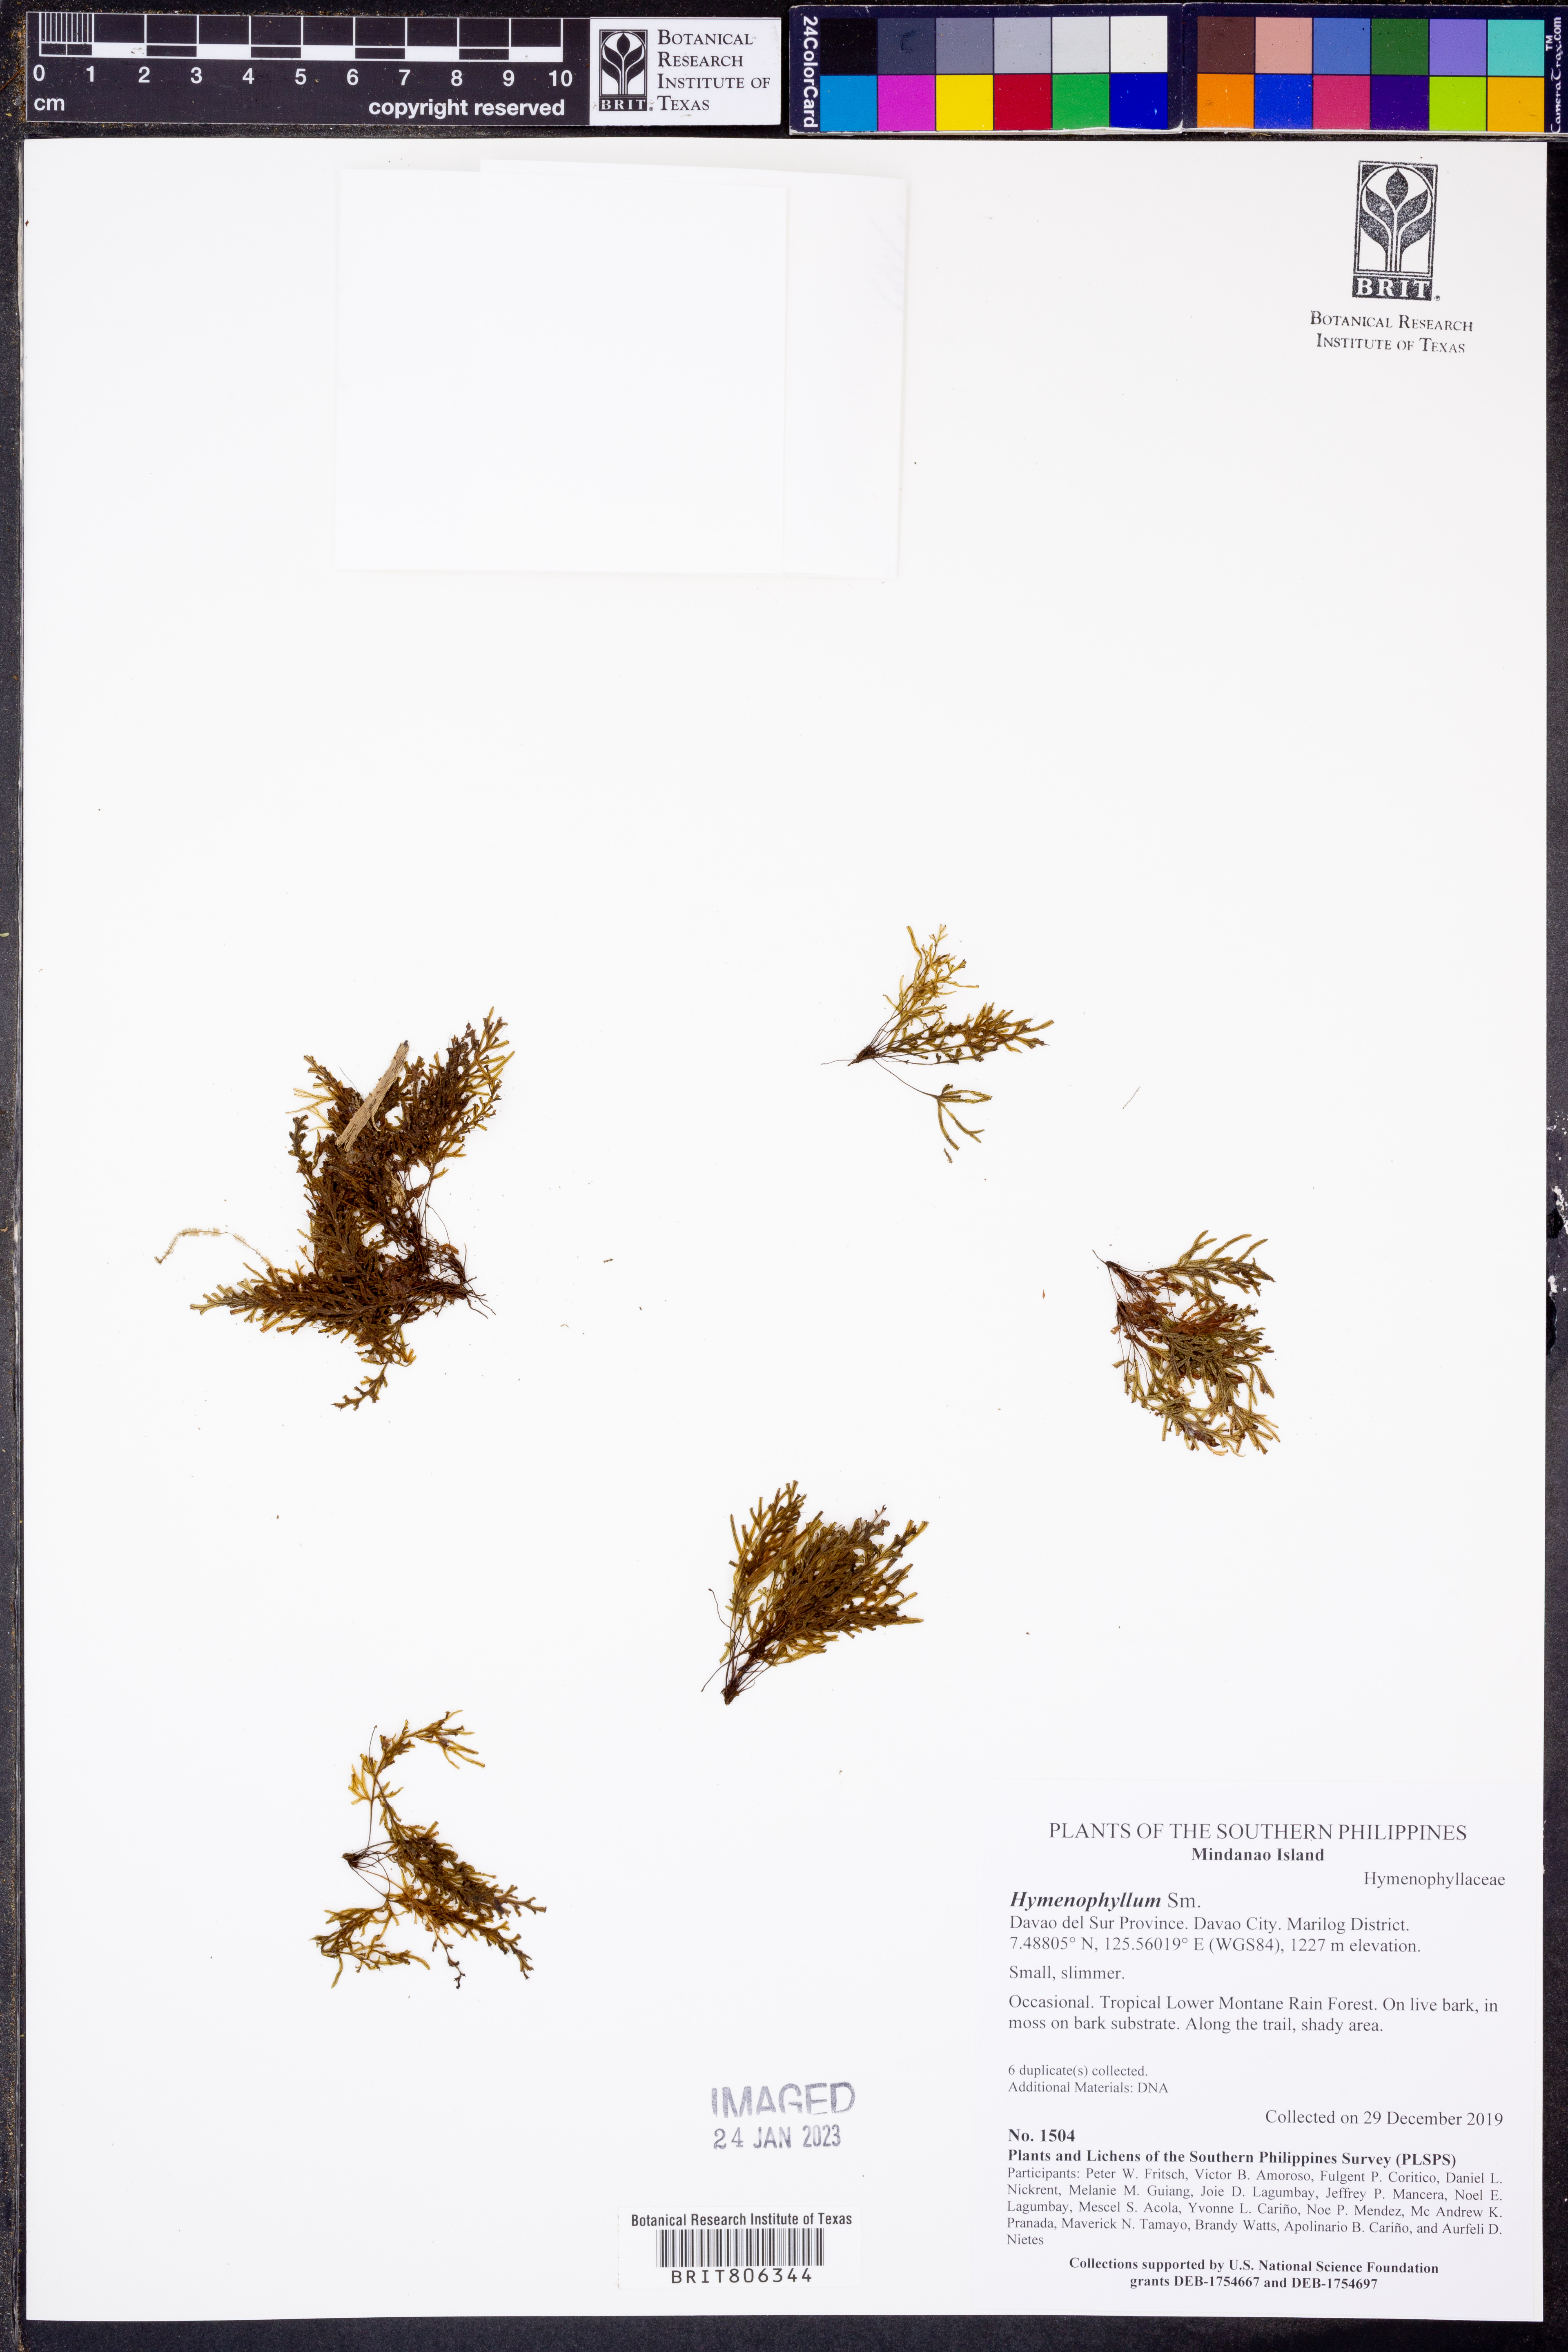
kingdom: Plantae
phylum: Tracheophyta
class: Polypodiopsida
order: Hymenophyllales
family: Hymenophyllaceae
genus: Hymenophyllum
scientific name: Hymenophyllum
